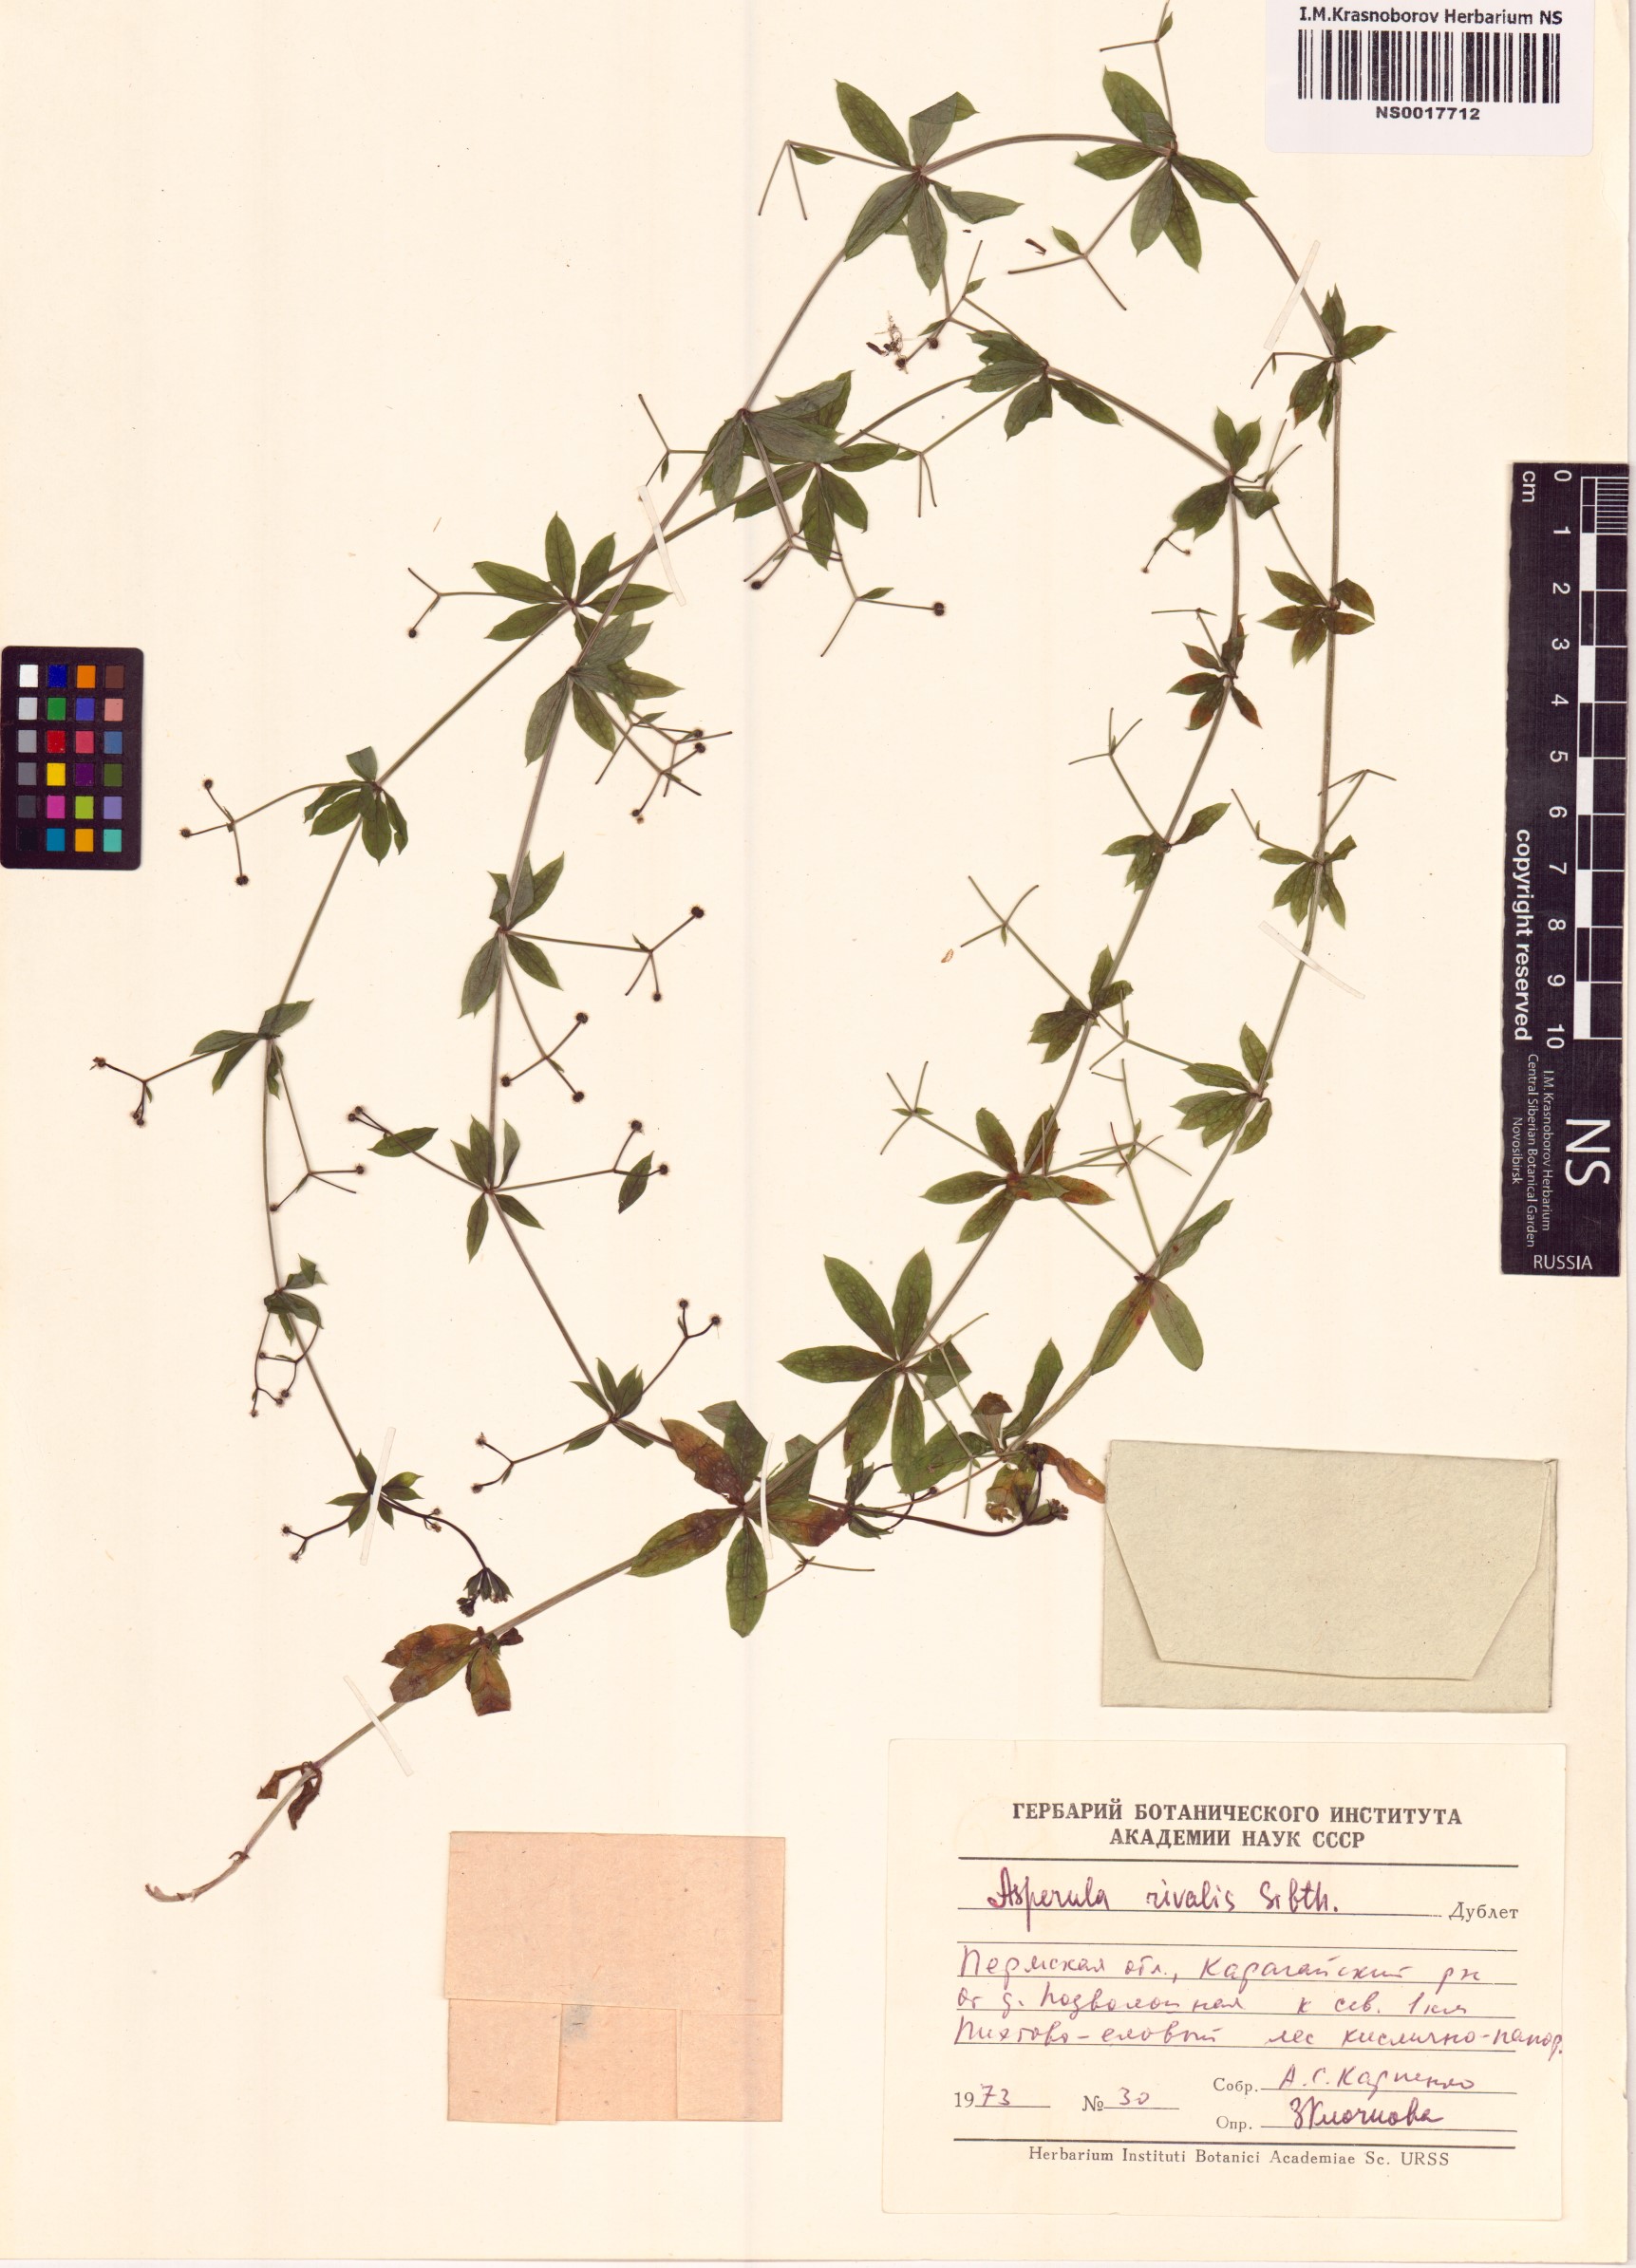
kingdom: Plantae
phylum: Tracheophyta
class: Magnoliopsida
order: Gentianales
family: Rubiaceae
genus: Galium
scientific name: Galium rivale
